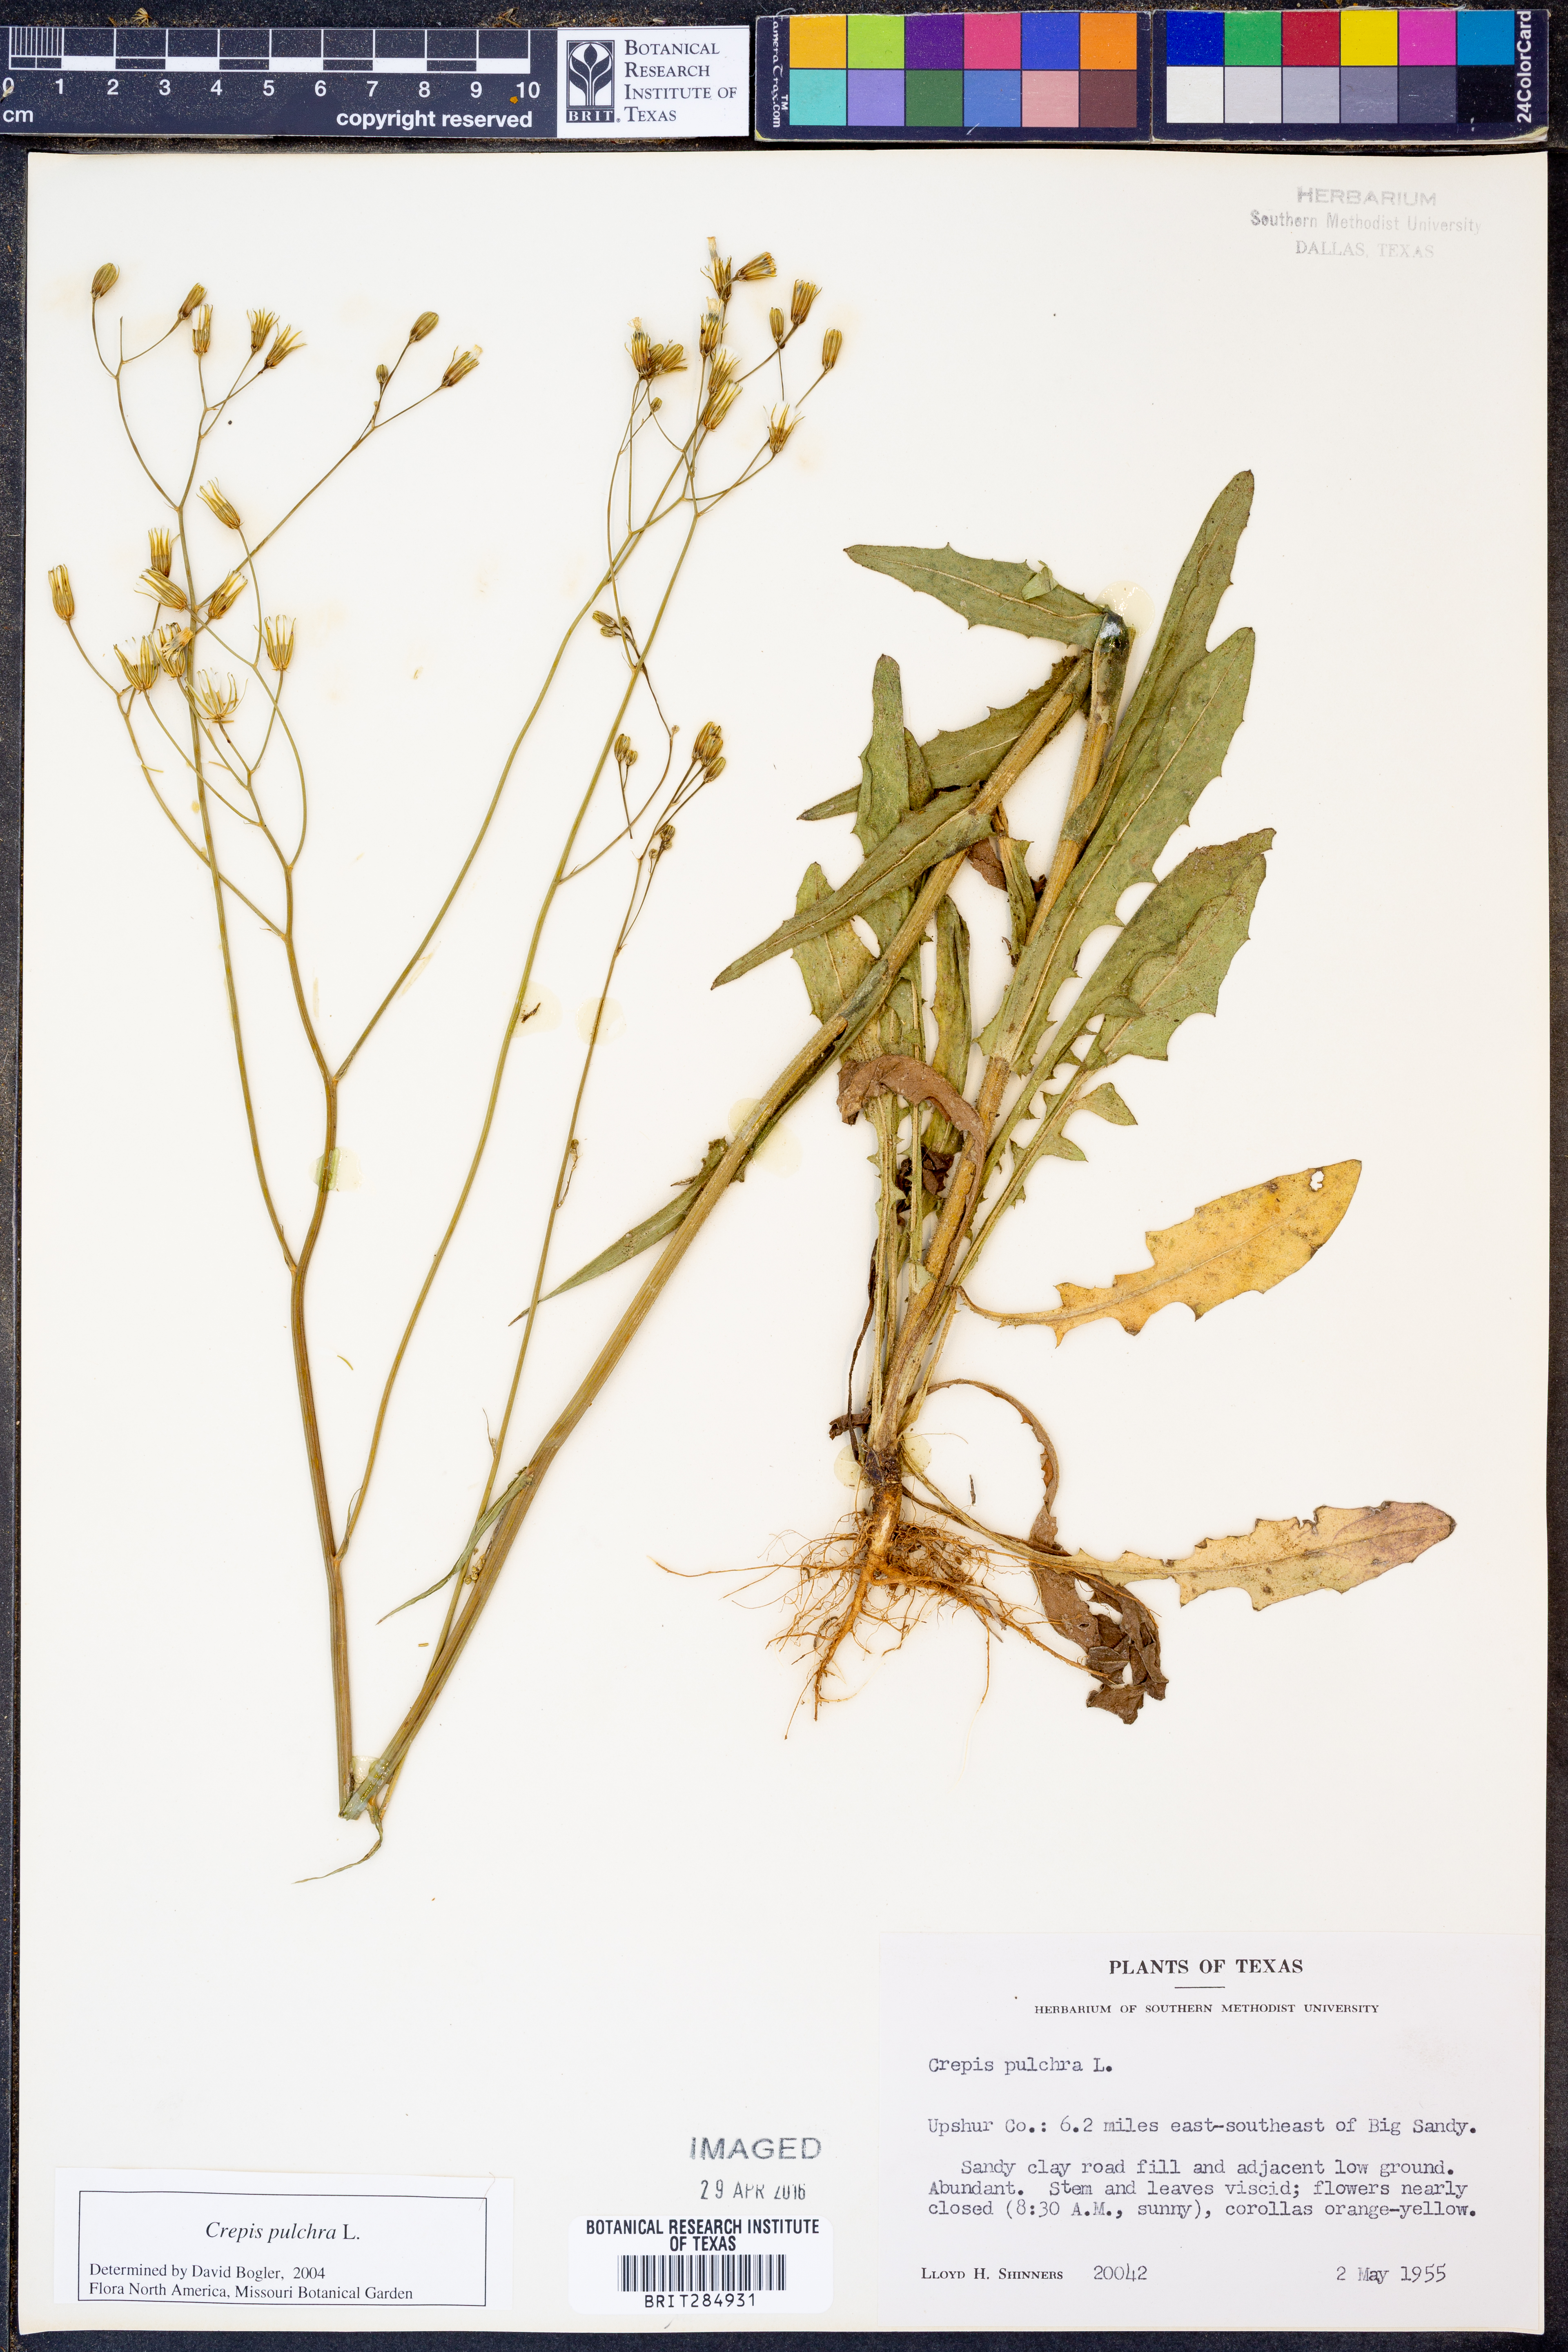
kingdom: Plantae
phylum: Tracheophyta
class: Magnoliopsida
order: Asterales
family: Asteraceae
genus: Crepis
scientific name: Crepis pulchra
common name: Hawk's-beard
